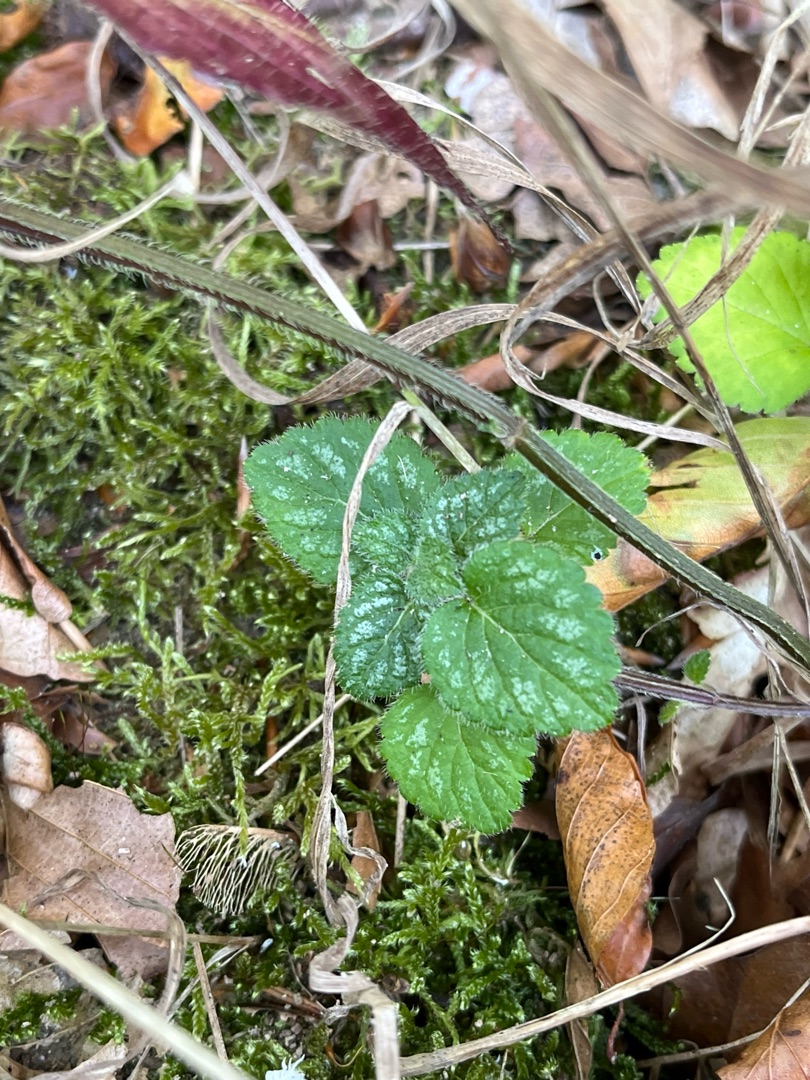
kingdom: Plantae
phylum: Tracheophyta
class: Magnoliopsida
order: Lamiales
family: Lamiaceae
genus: Lamium
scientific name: Lamium galeobdolon
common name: Almindelig guldnælde
